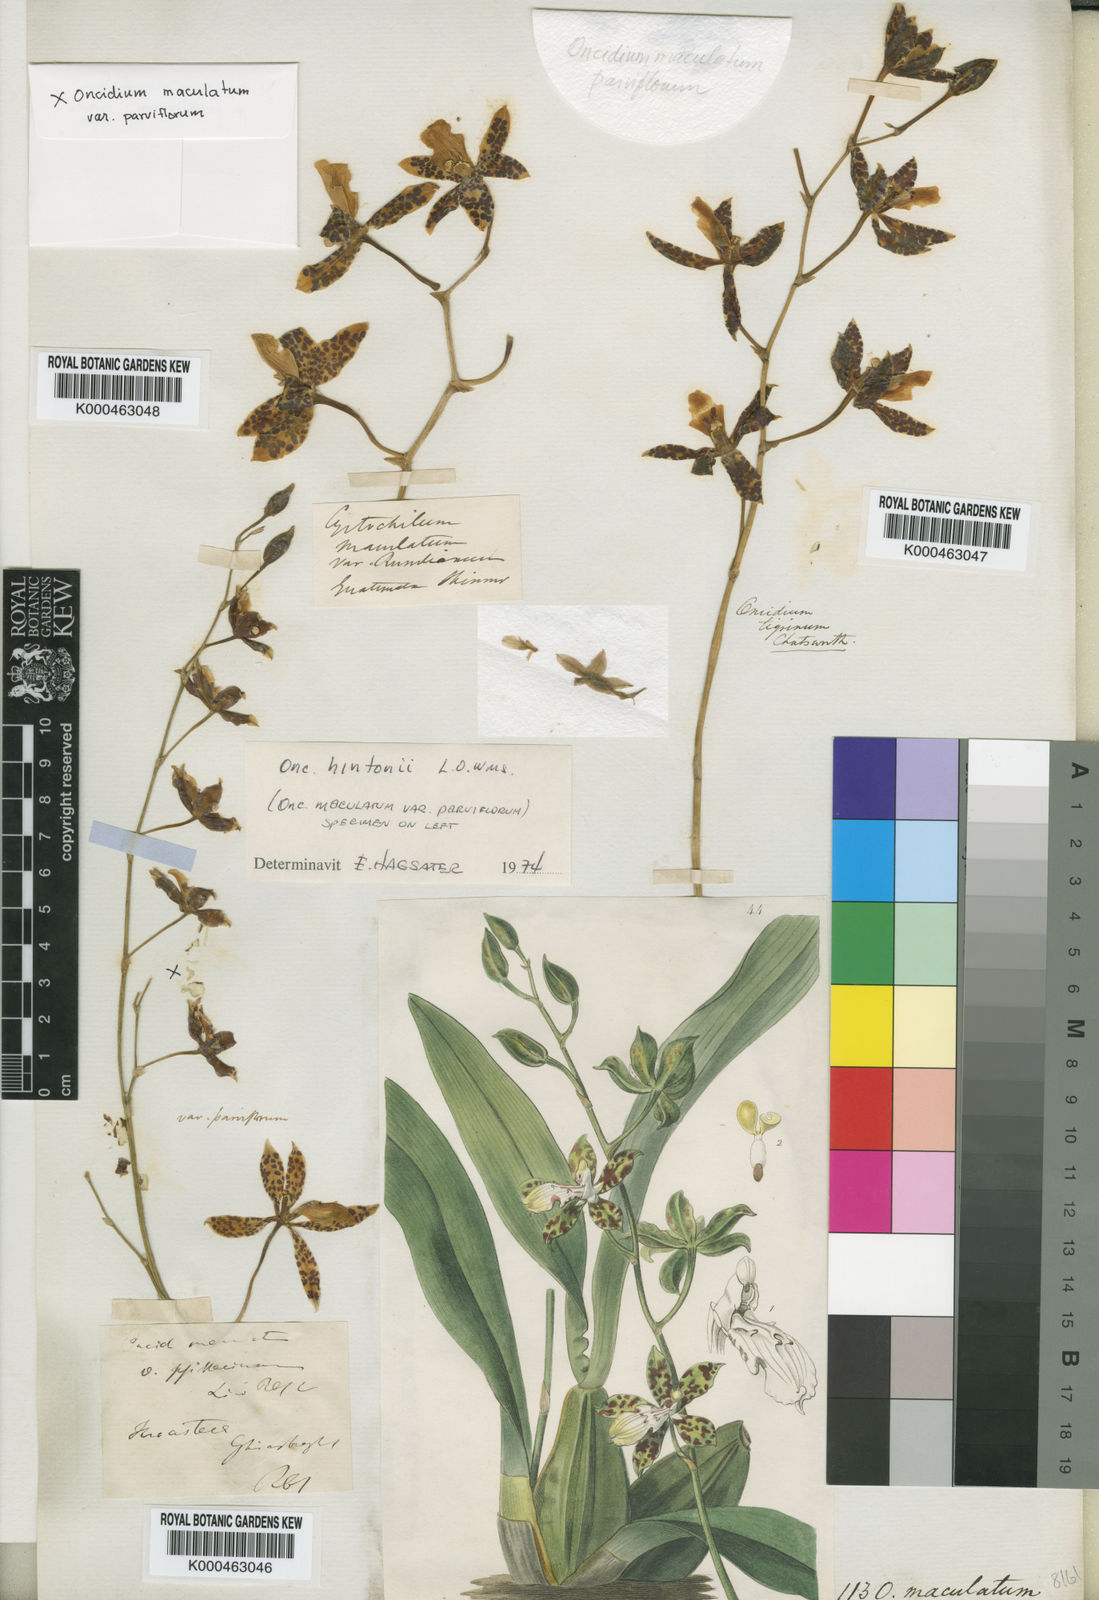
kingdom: Plantae
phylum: Tracheophyta
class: Liliopsida
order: Asparagales
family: Orchidaceae
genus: Oncidium
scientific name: Oncidium maculatum
